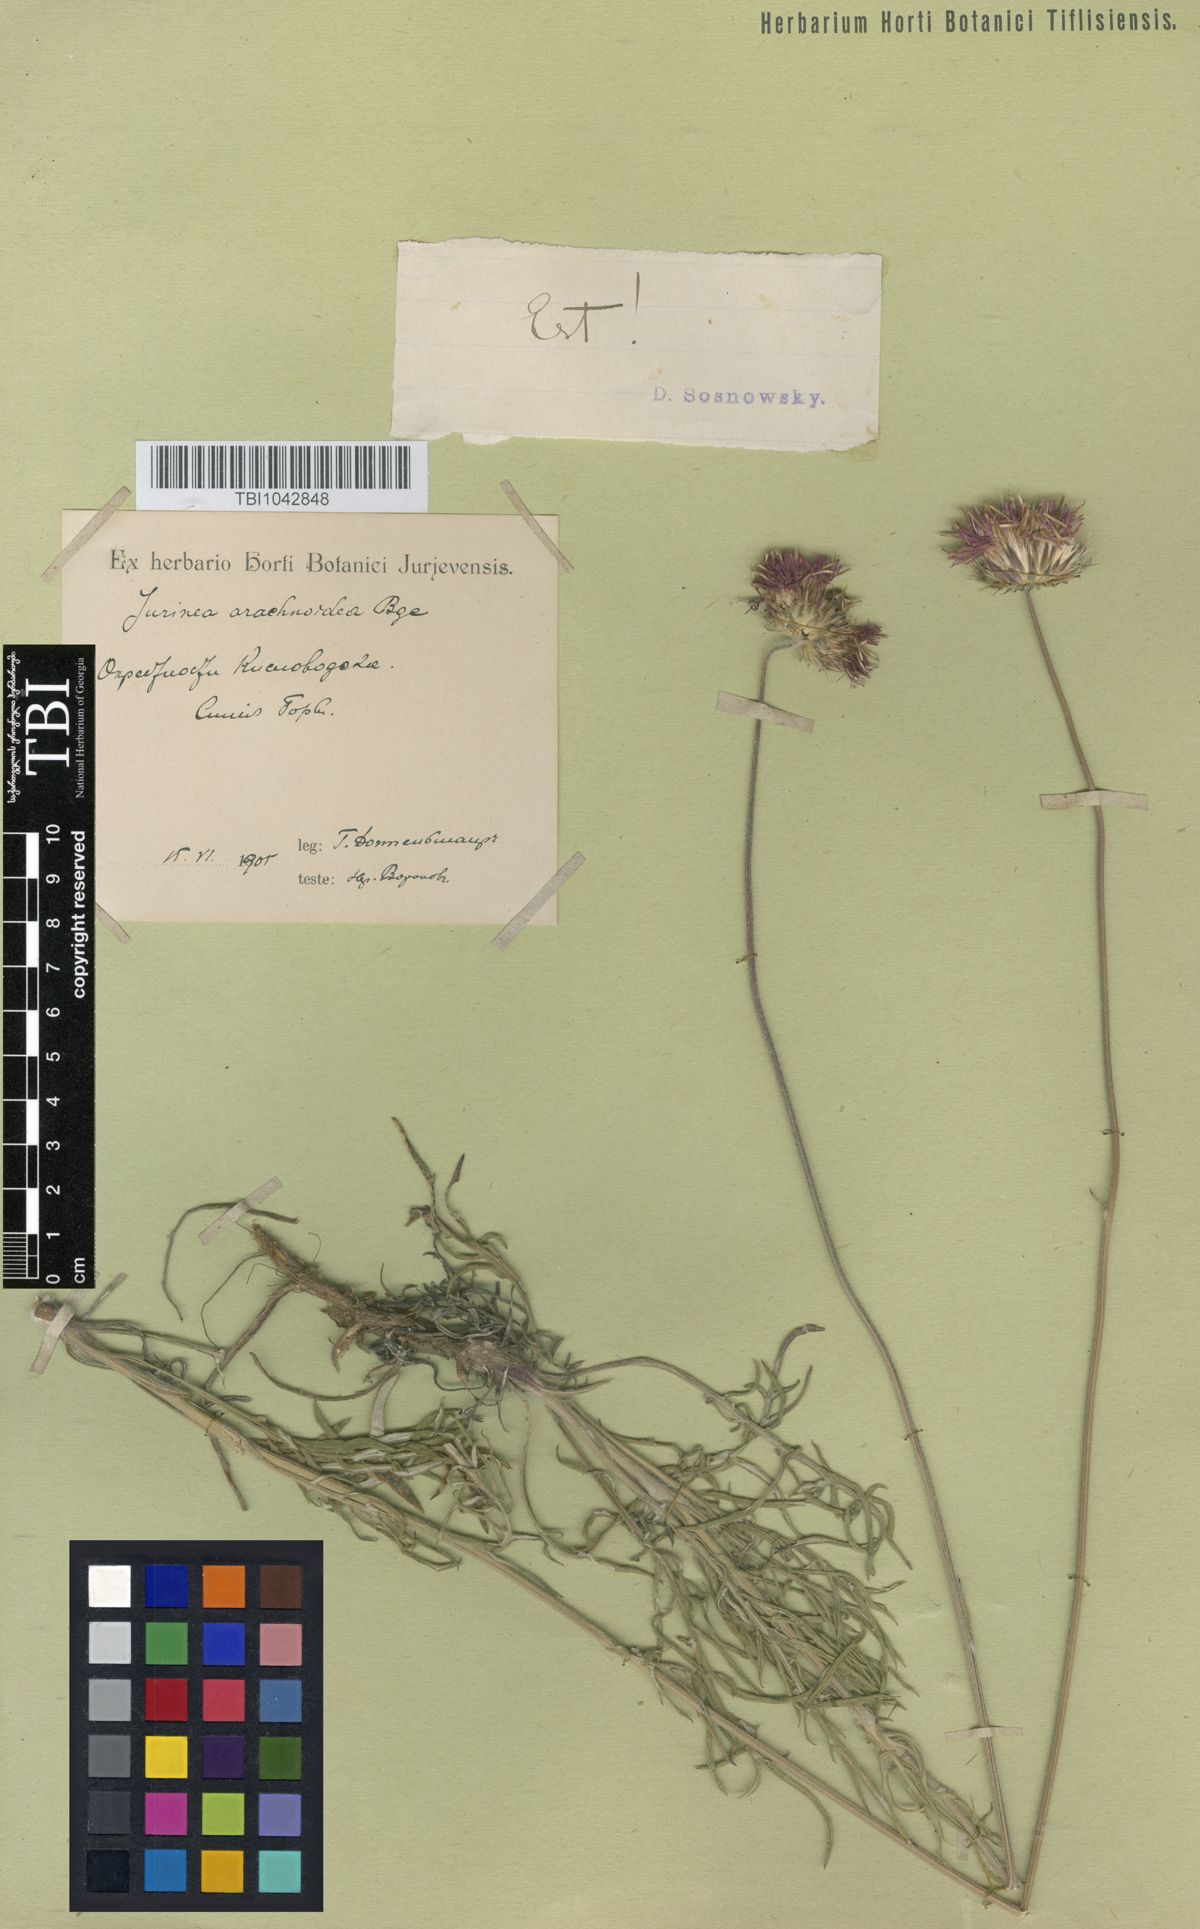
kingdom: Plantae
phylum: Tracheophyta
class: Magnoliopsida
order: Asterales
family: Asteraceae
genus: Jurinea
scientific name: Jurinea blanda
